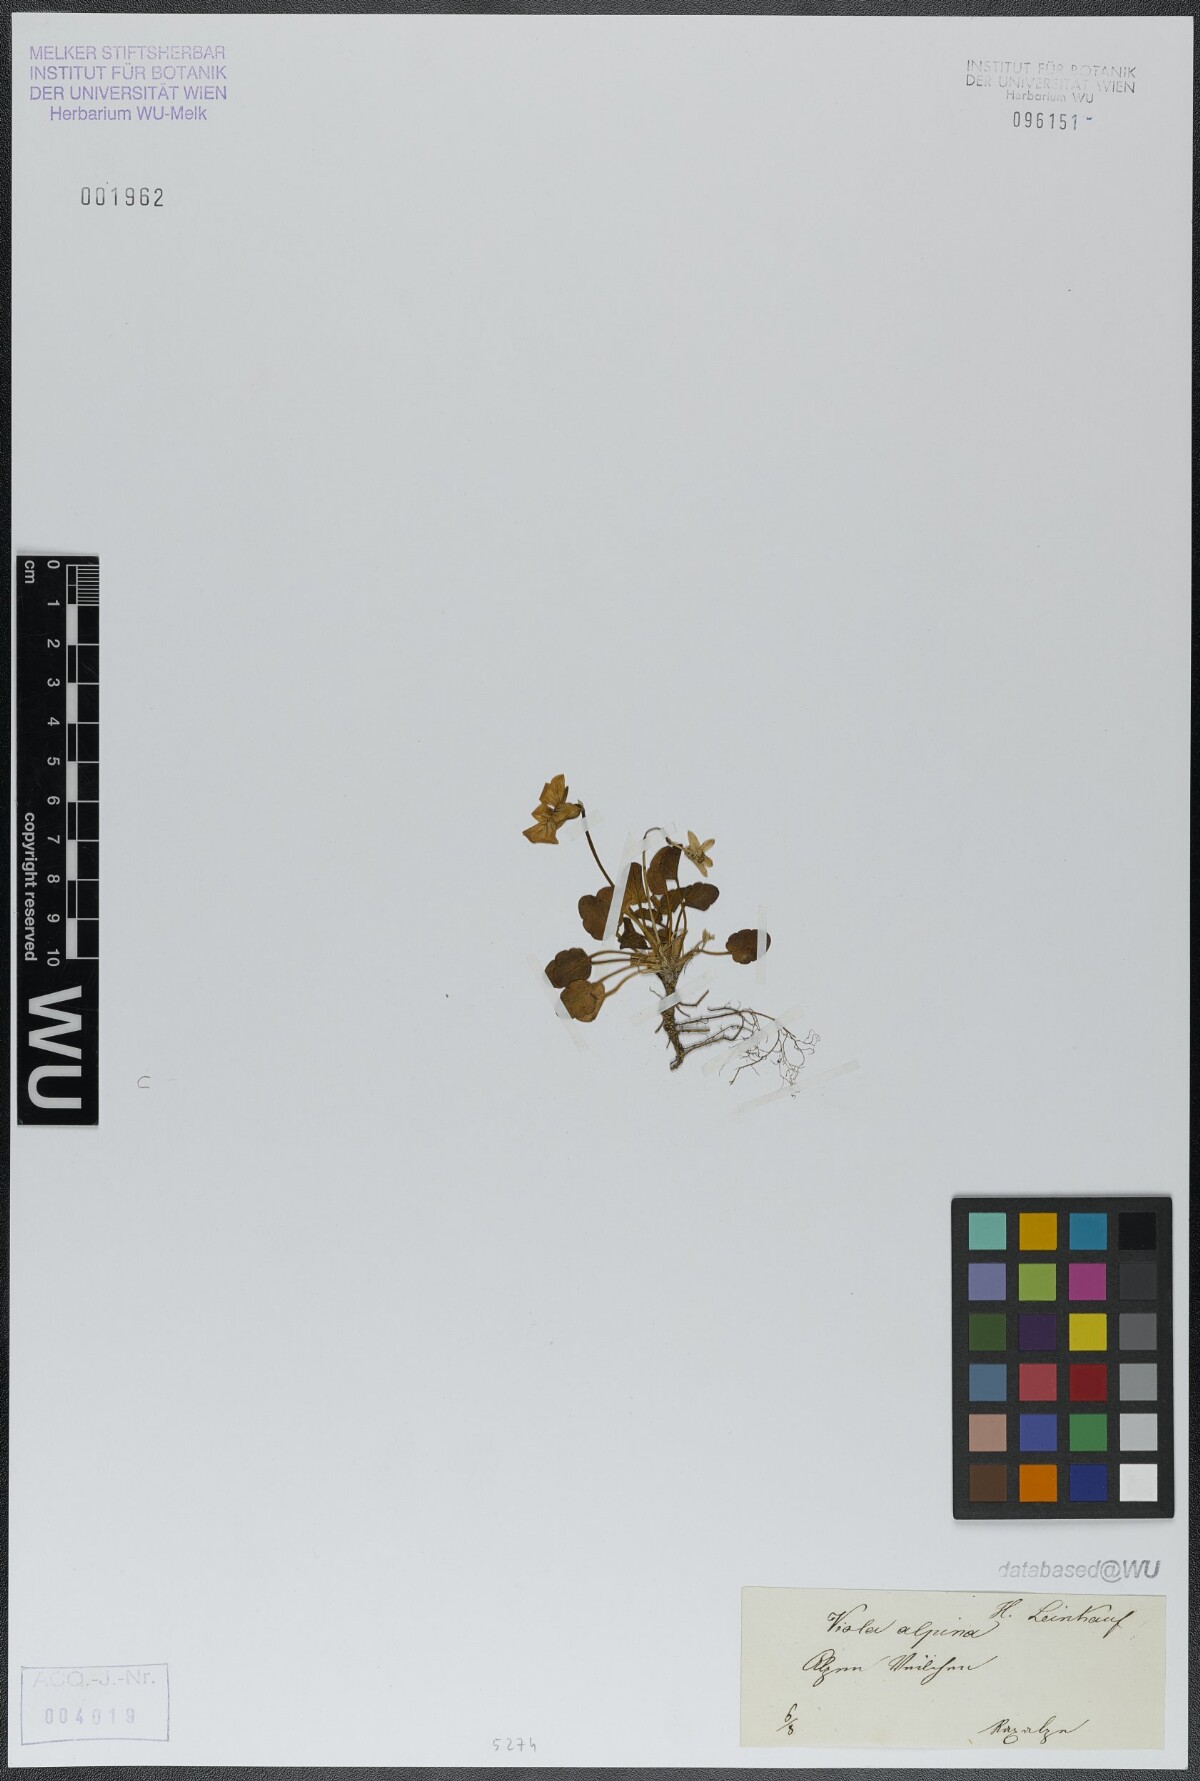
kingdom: Plantae
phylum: Tracheophyta
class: Magnoliopsida
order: Malpighiales
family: Violaceae
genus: Viola
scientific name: Viola alpina
